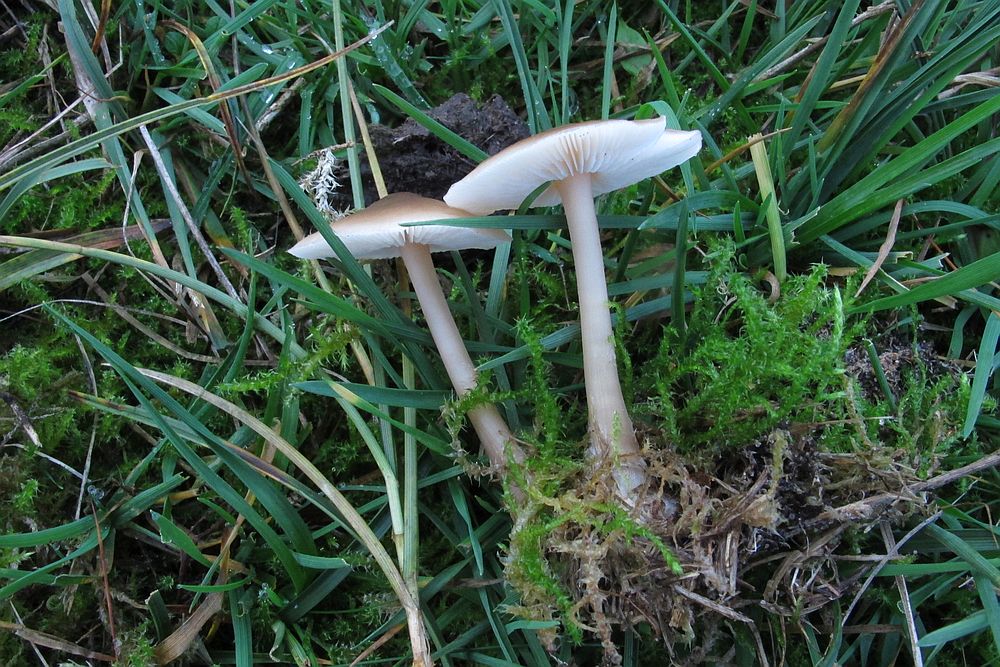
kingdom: Fungi
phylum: Basidiomycota
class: Agaricomycetes
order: Agaricales
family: Omphalotaceae
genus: Rhodocollybia
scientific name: Rhodocollybia asema
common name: horngrå fladhat
